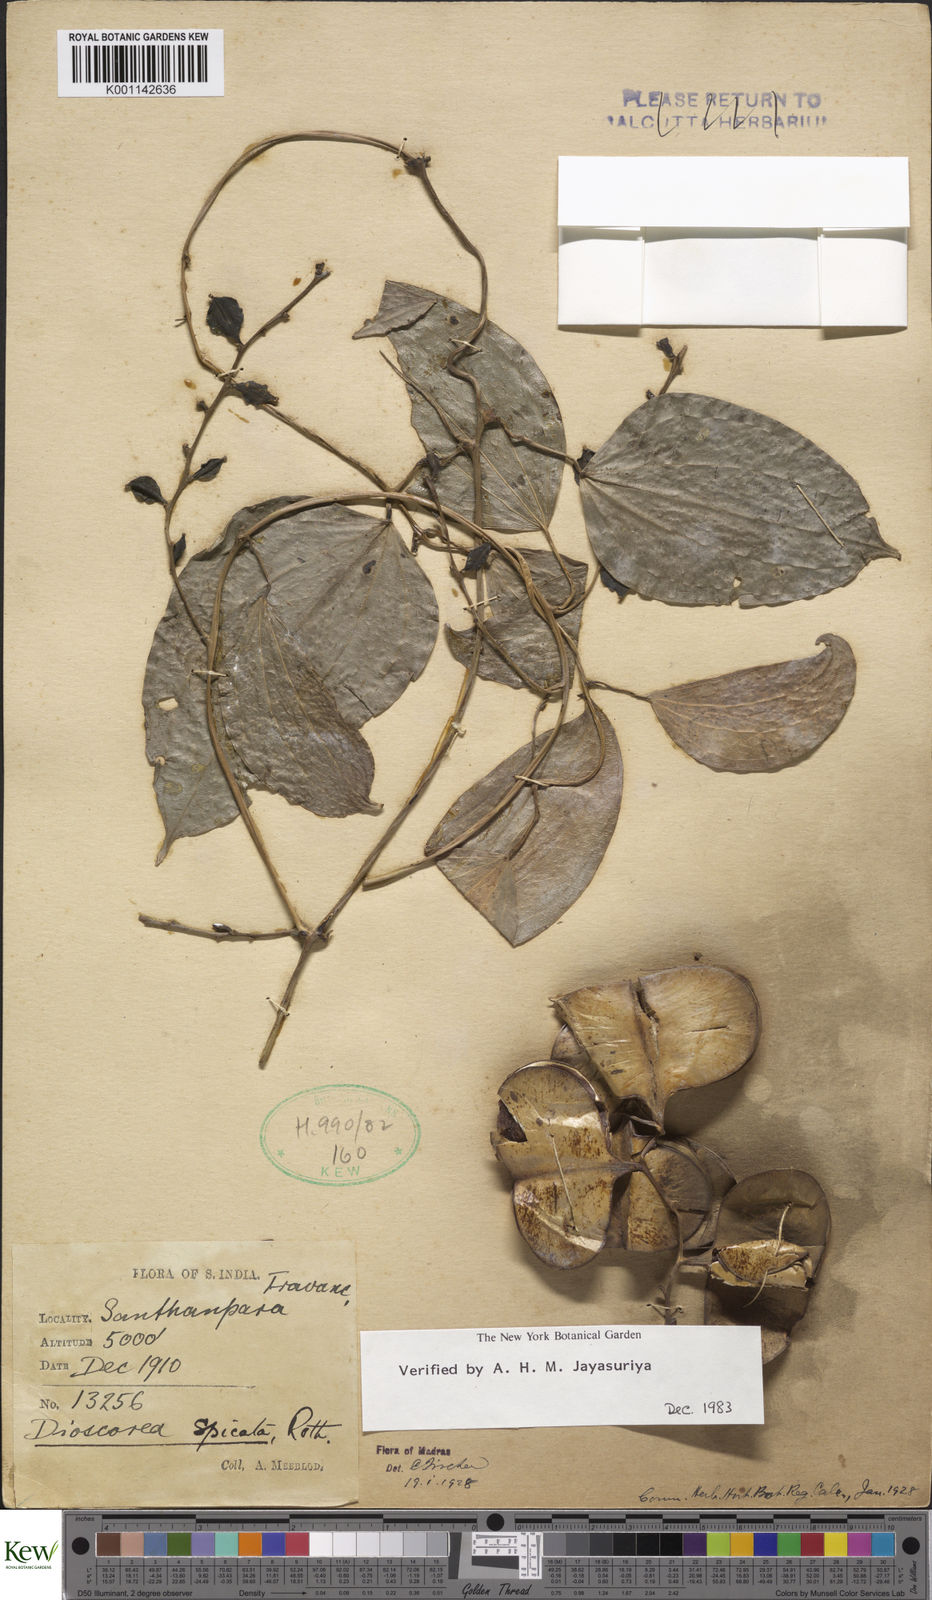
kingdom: Plantae
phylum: Tracheophyta
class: Liliopsida
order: Dioscoreales
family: Dioscoreaceae
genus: Dioscorea
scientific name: Dioscorea spicata
